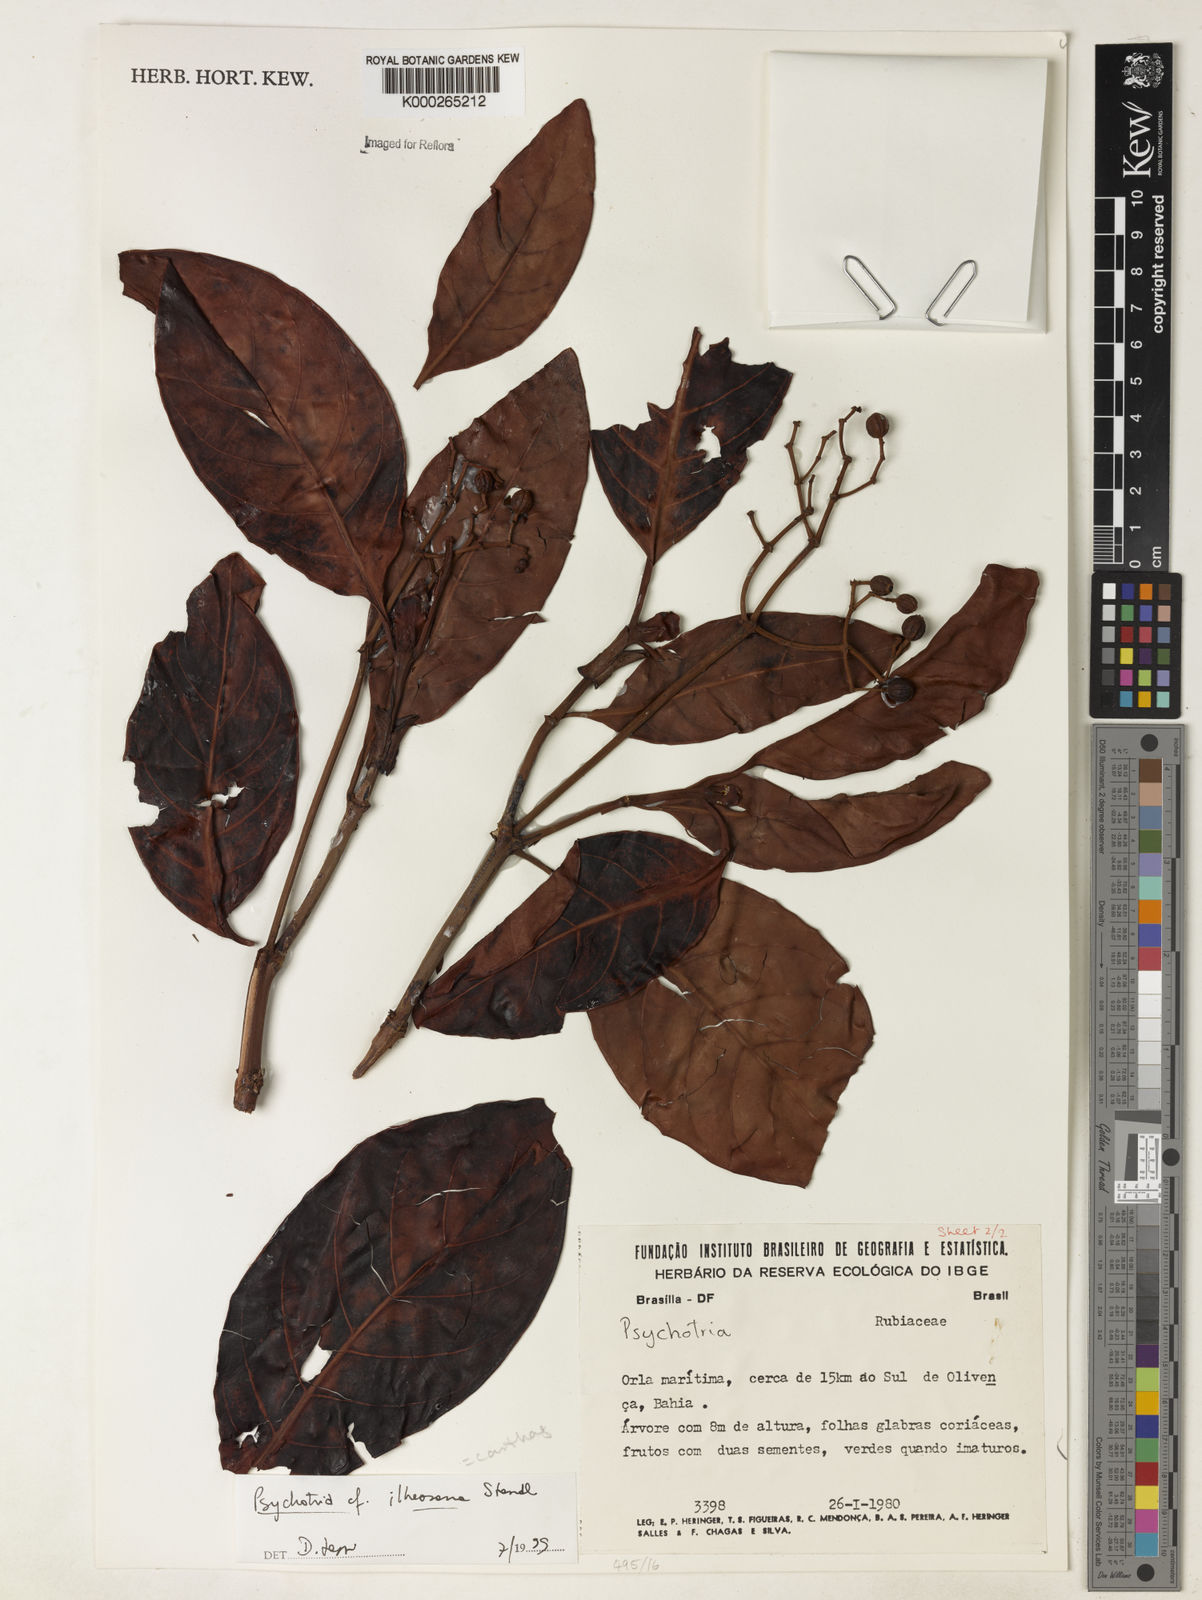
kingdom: Plantae
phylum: Tracheophyta
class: Magnoliopsida
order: Gentianales
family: Rubiaceae
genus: Psychotria
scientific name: Psychotria carthagenensis
